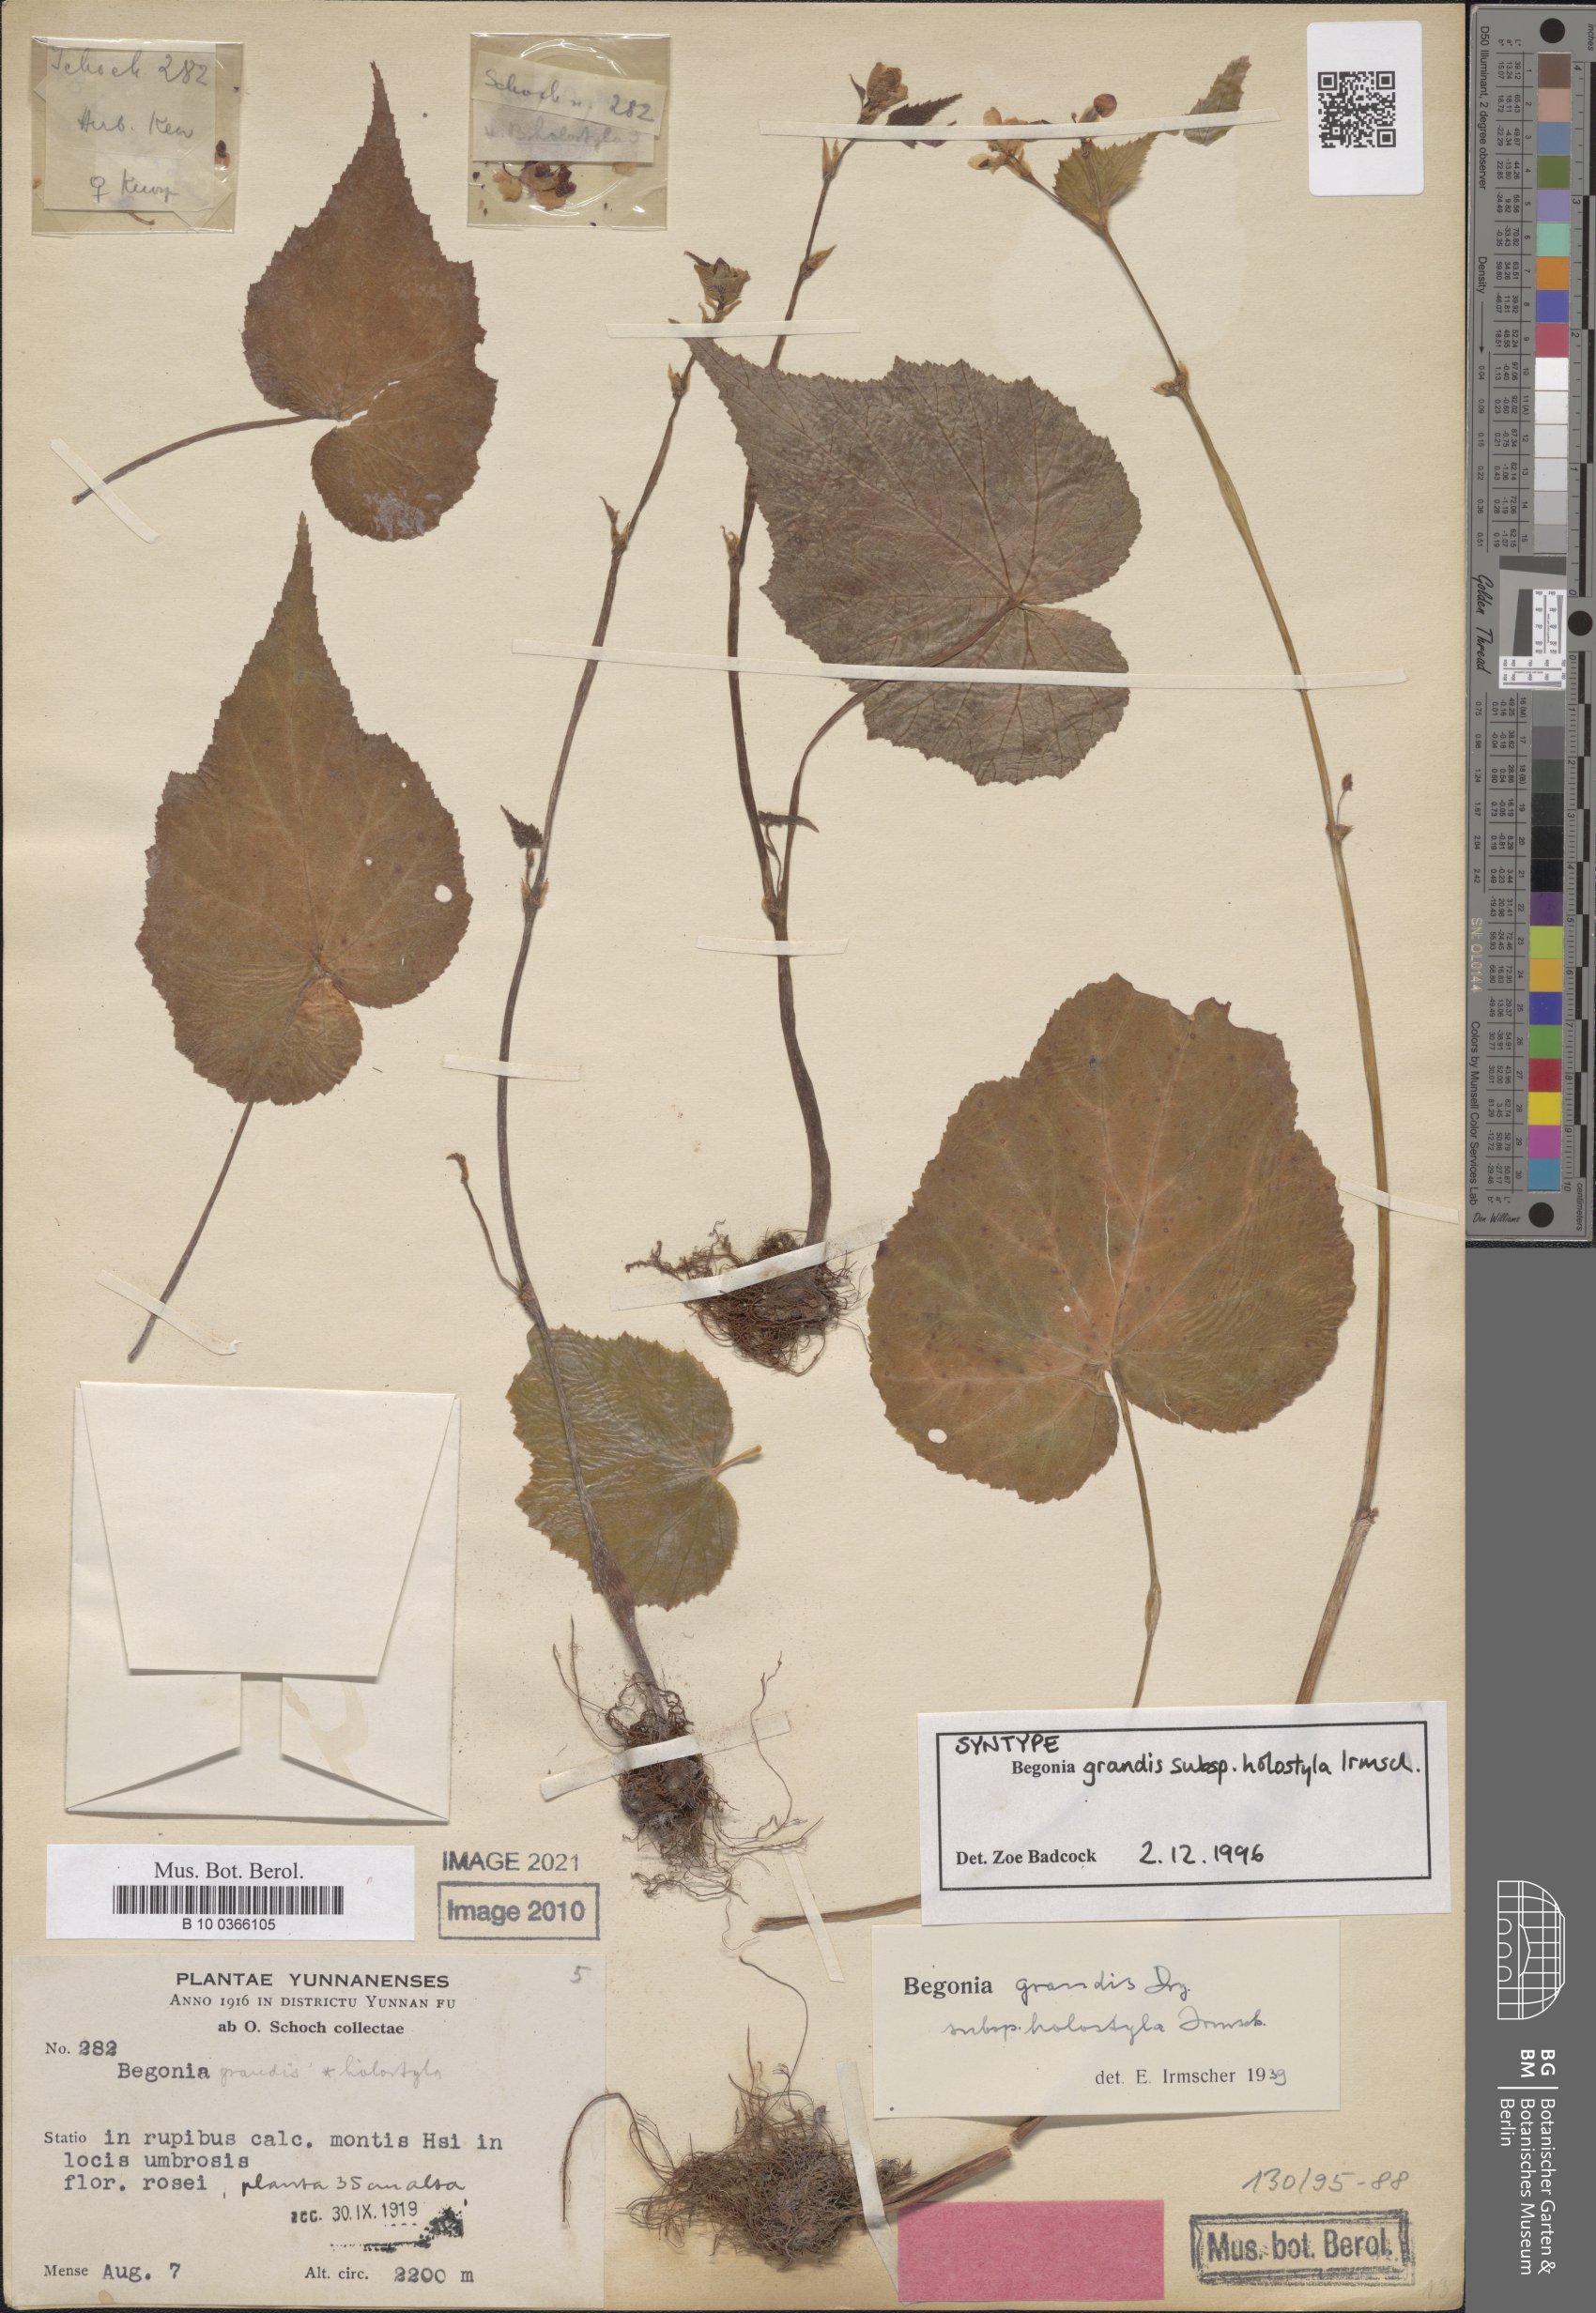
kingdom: Plantae
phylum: Tracheophyta
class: Magnoliopsida
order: Cucurbitales
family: Begoniaceae
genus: Begonia
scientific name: Begonia grandis
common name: Hardy begonia
